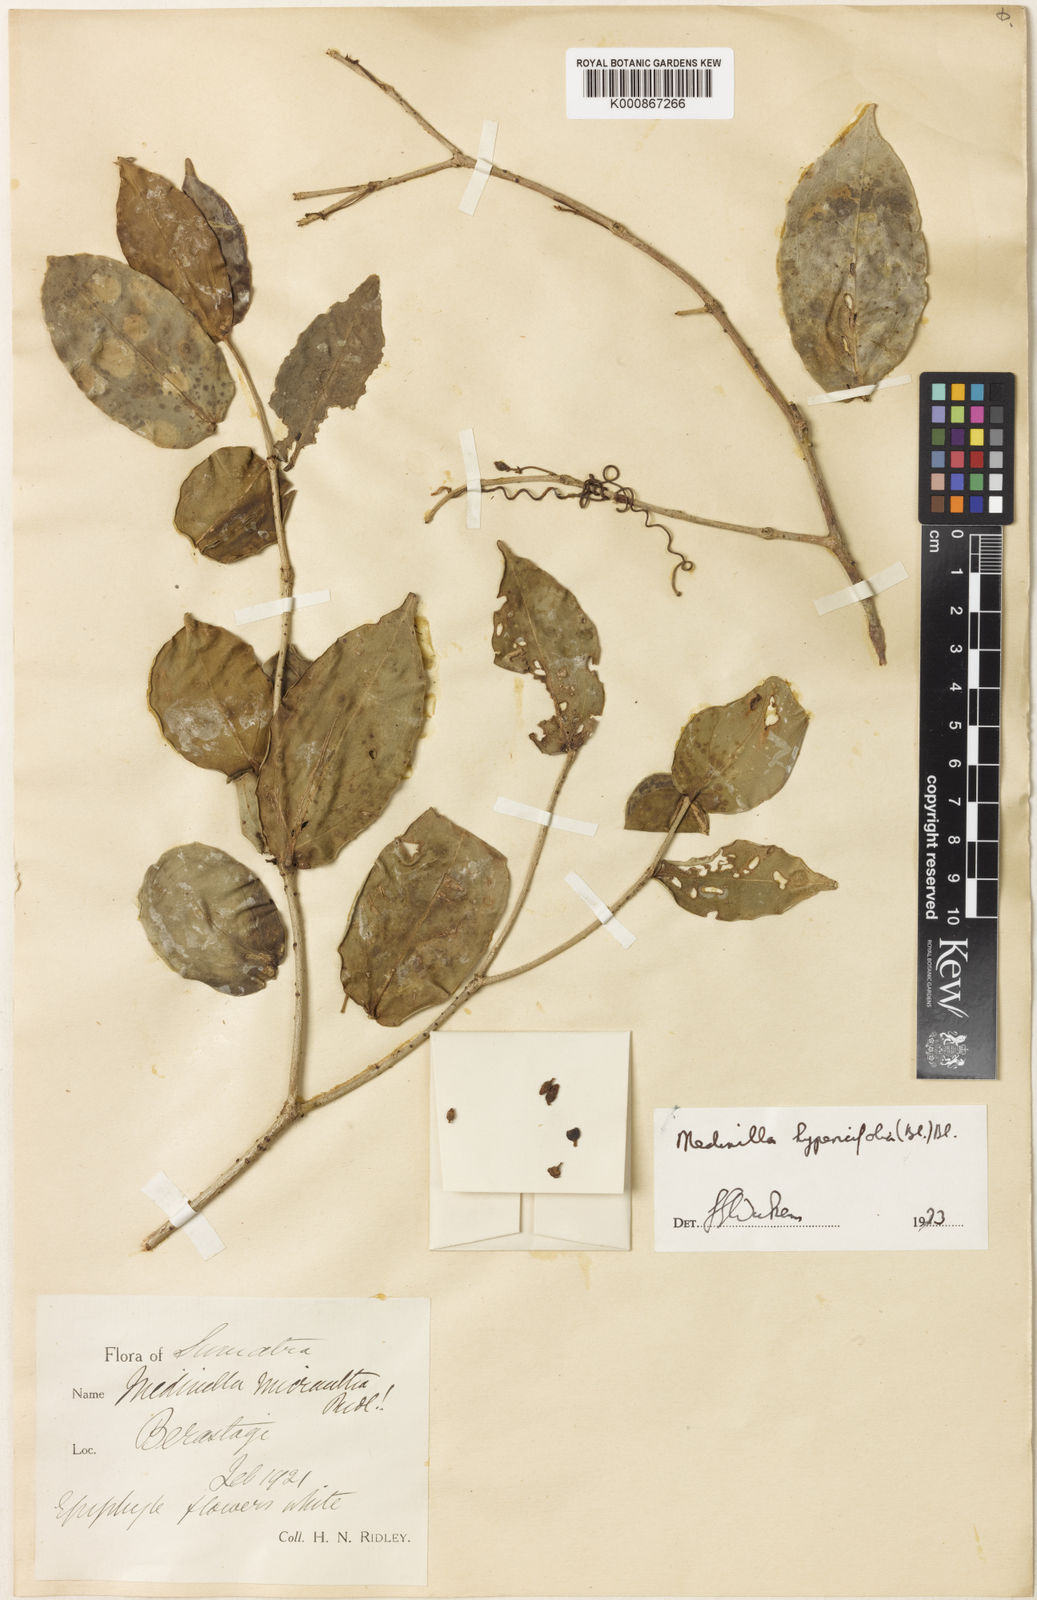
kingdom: Plantae
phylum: Tracheophyta
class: Magnoliopsida
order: Myrtales
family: Melastomataceae
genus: Medinilla
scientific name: Medinilla hypericifolia
